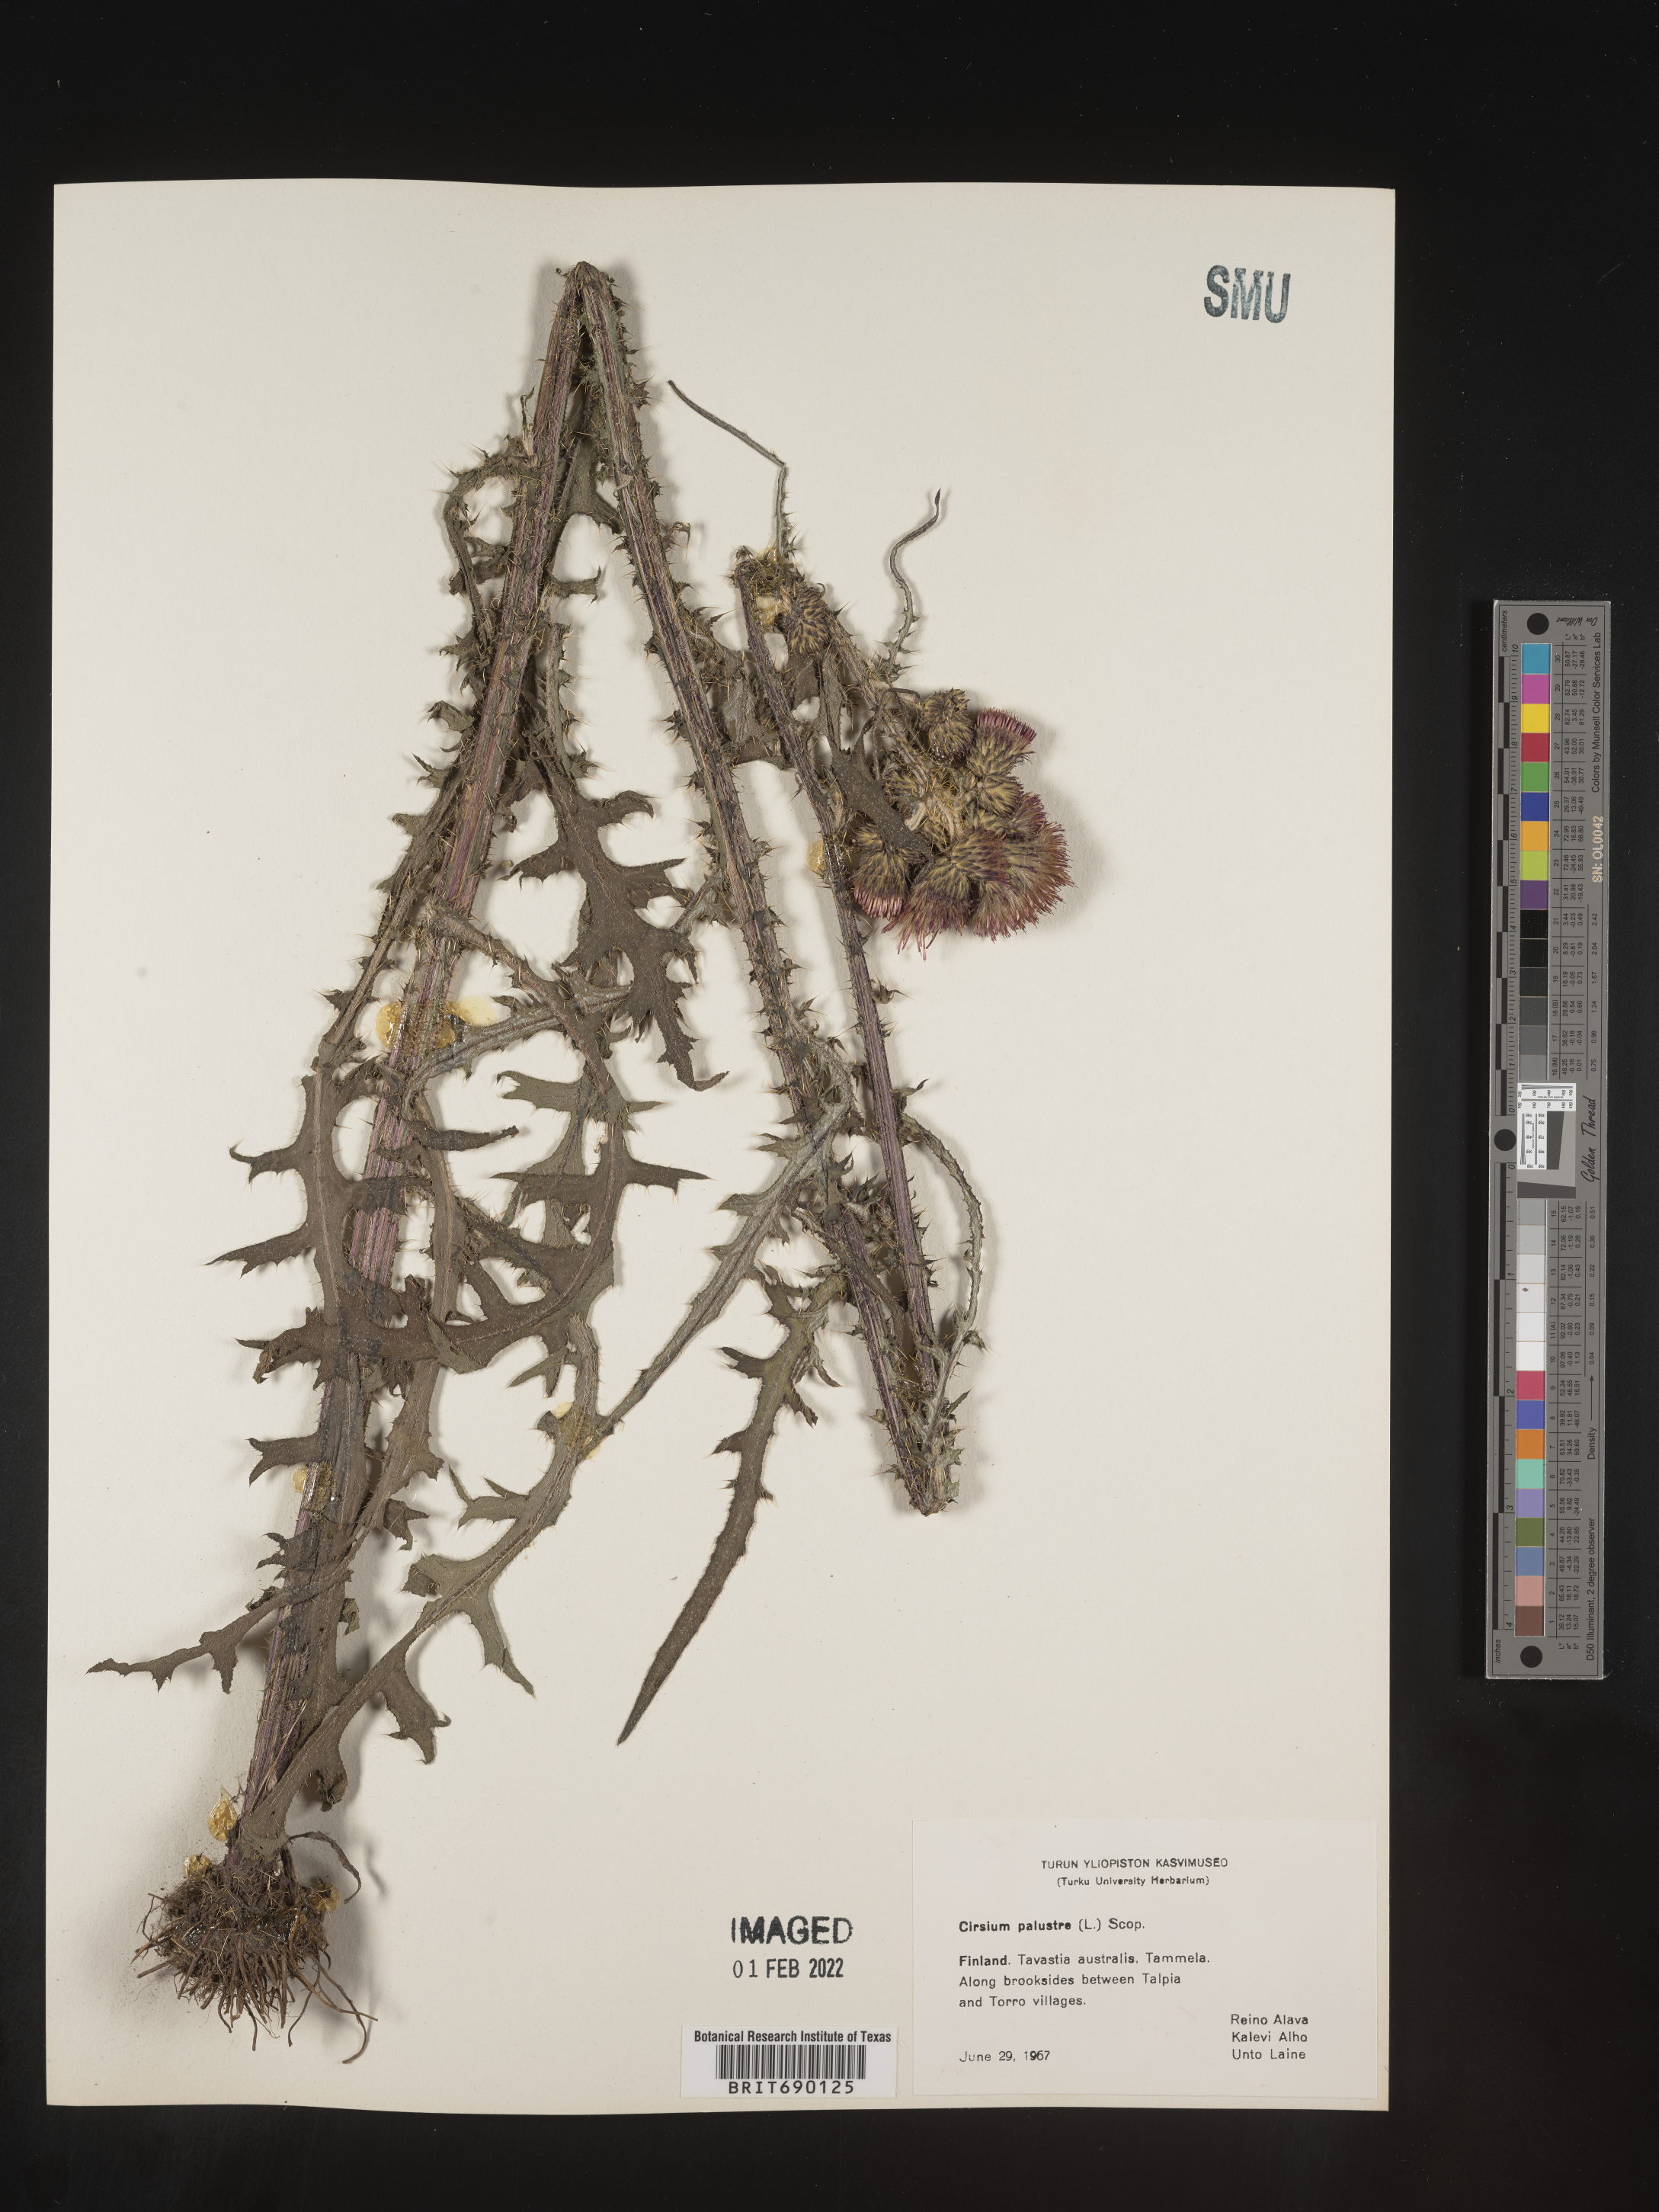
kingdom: Plantae
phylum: Tracheophyta
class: Magnoliopsida
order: Asterales
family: Asteraceae
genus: Cirsium
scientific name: Cirsium
